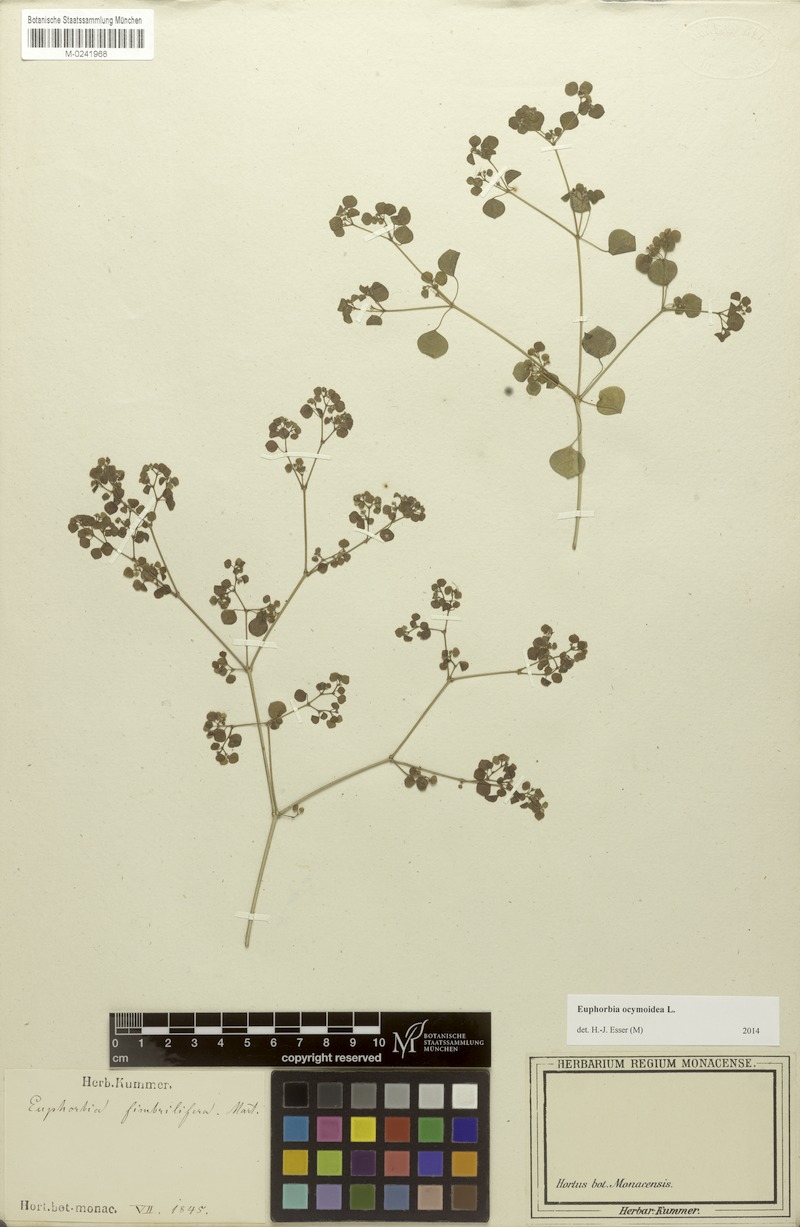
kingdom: Plantae
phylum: Tracheophyta
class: Magnoliopsida
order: Malpighiales
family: Euphorbiaceae
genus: Euphorbia
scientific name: Euphorbia ocymoidea
